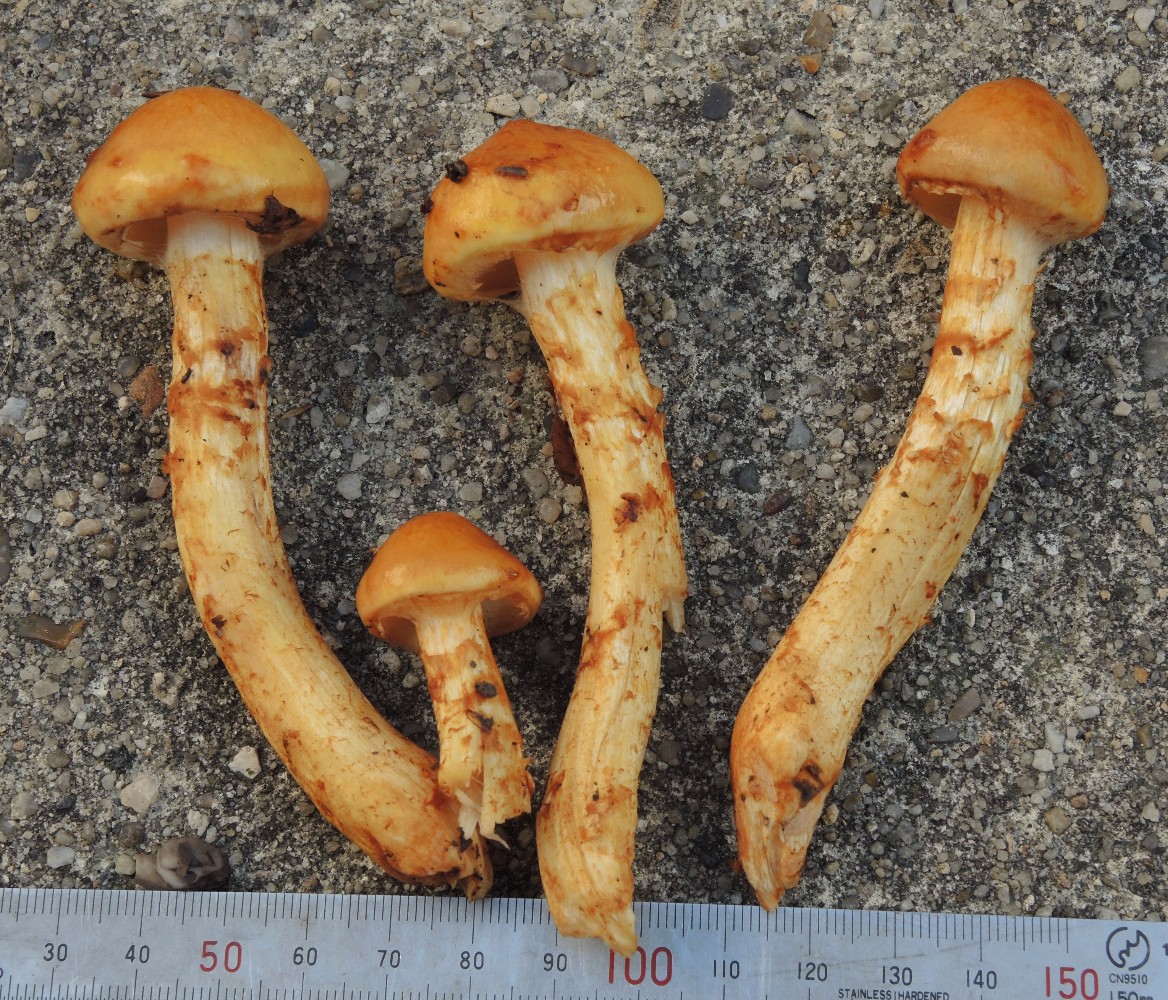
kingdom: Fungi
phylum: Basidiomycota
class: Agaricomycetes
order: Agaricales
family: Strophariaceae
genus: Pholiota
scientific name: Pholiota adiposa
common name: højtsiddende skælhat
